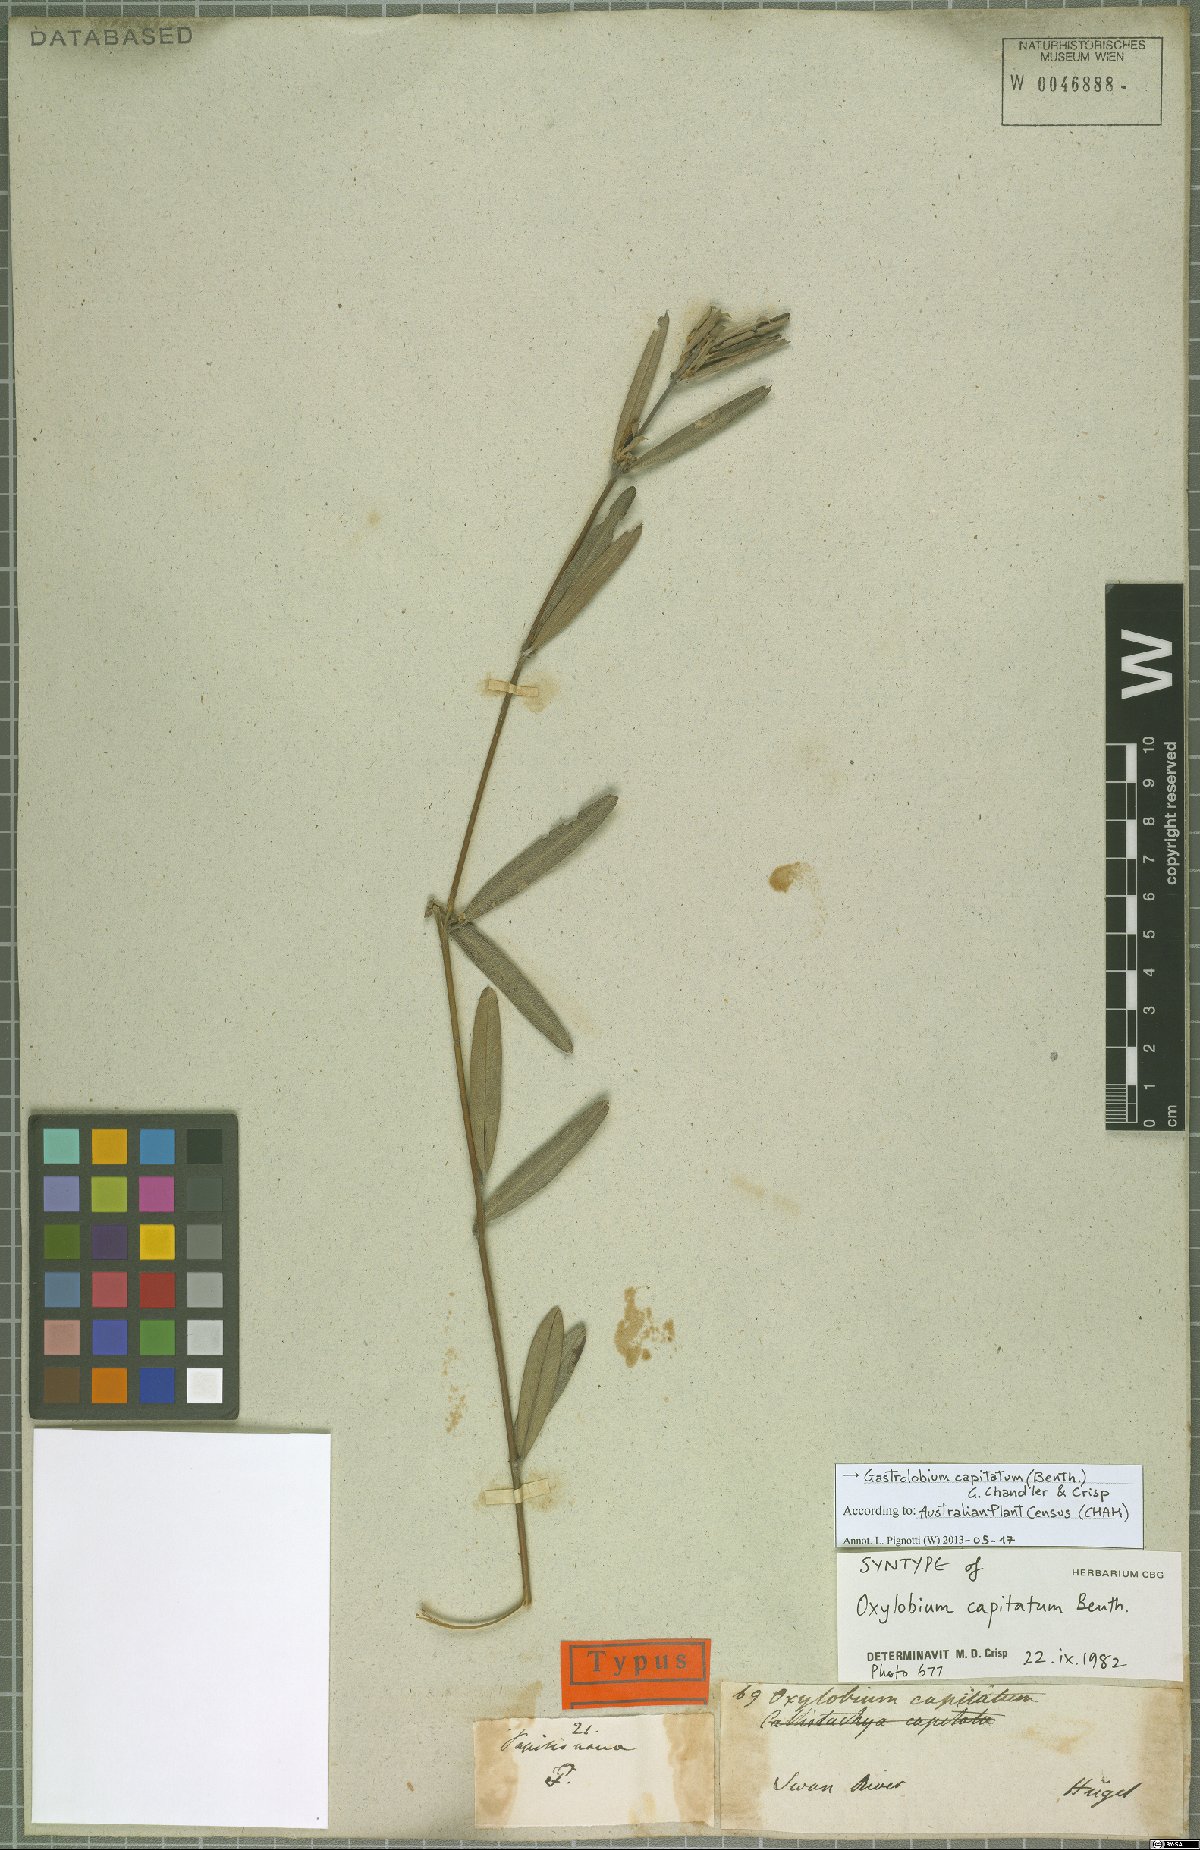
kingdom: Plantae
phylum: Tracheophyta
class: Magnoliopsida
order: Fabales
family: Fabaceae
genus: Gastrolobium
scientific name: Gastrolobium capitatum
